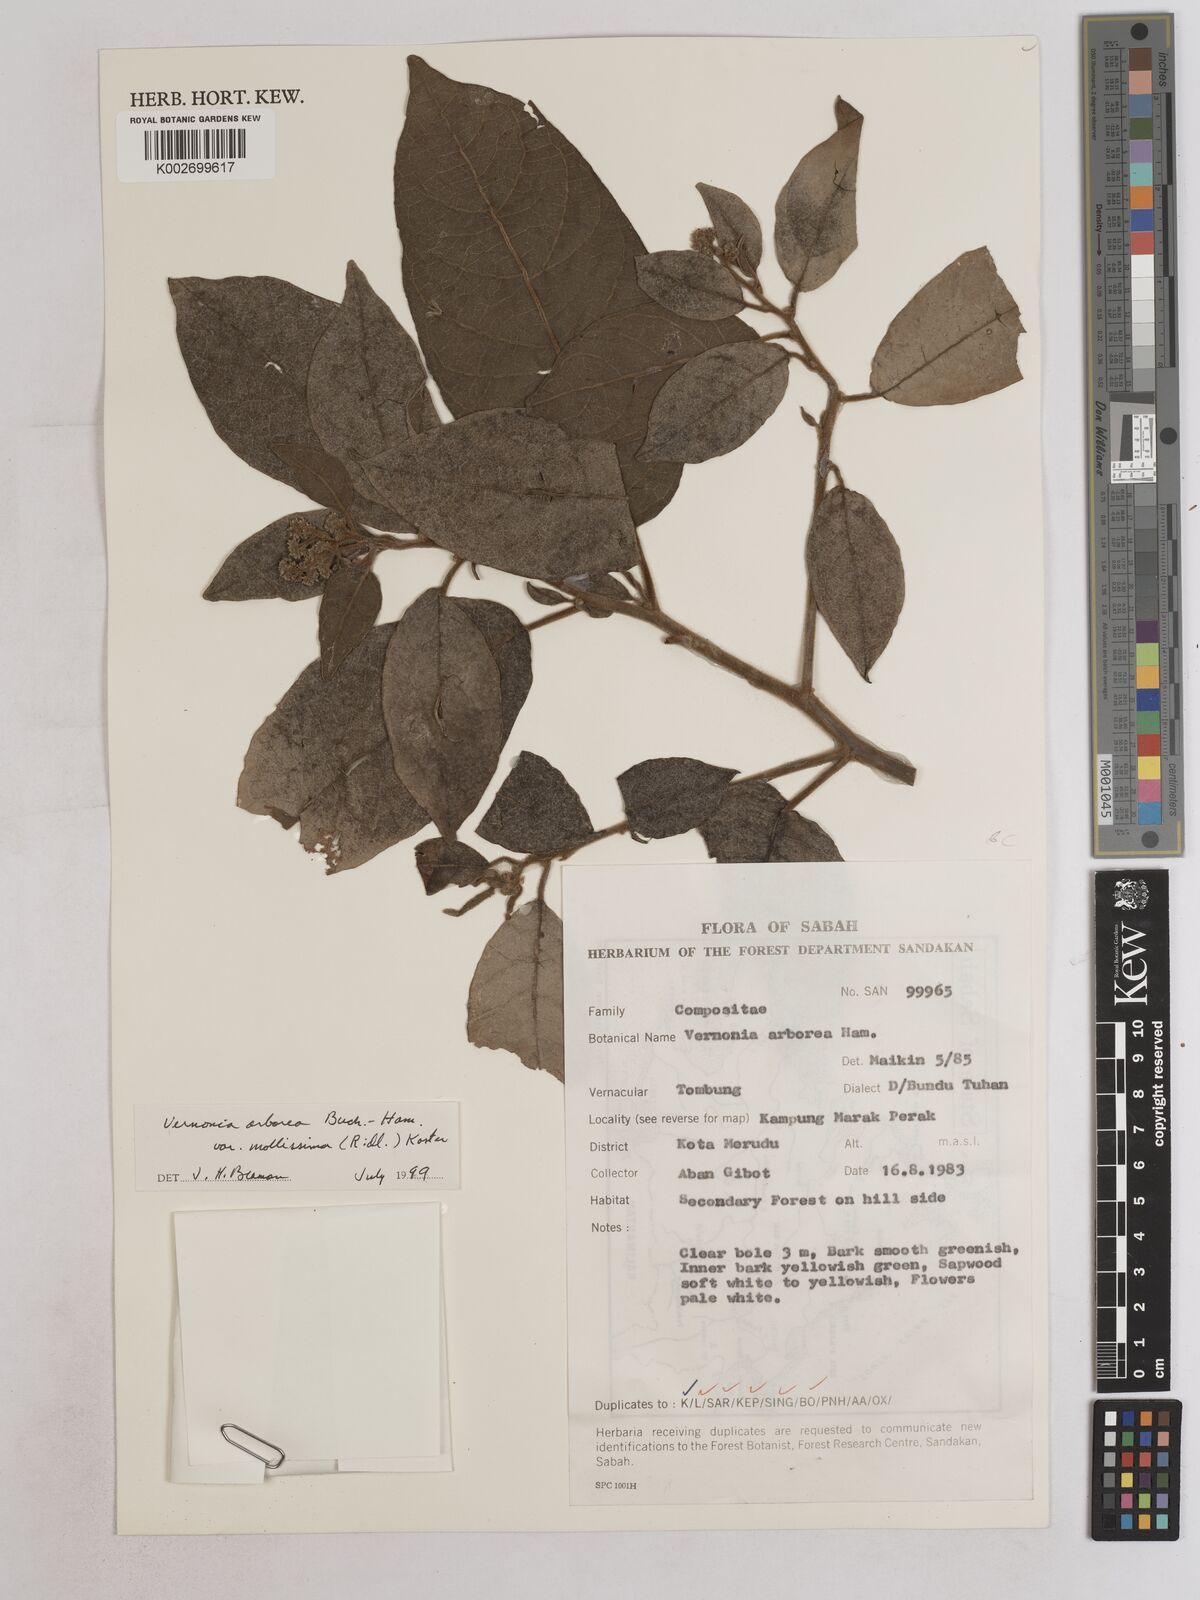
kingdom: Plantae
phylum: Tracheophyta
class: Magnoliopsida
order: Asterales
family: Asteraceae
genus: Strobocalyx
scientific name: Strobocalyx arborea
